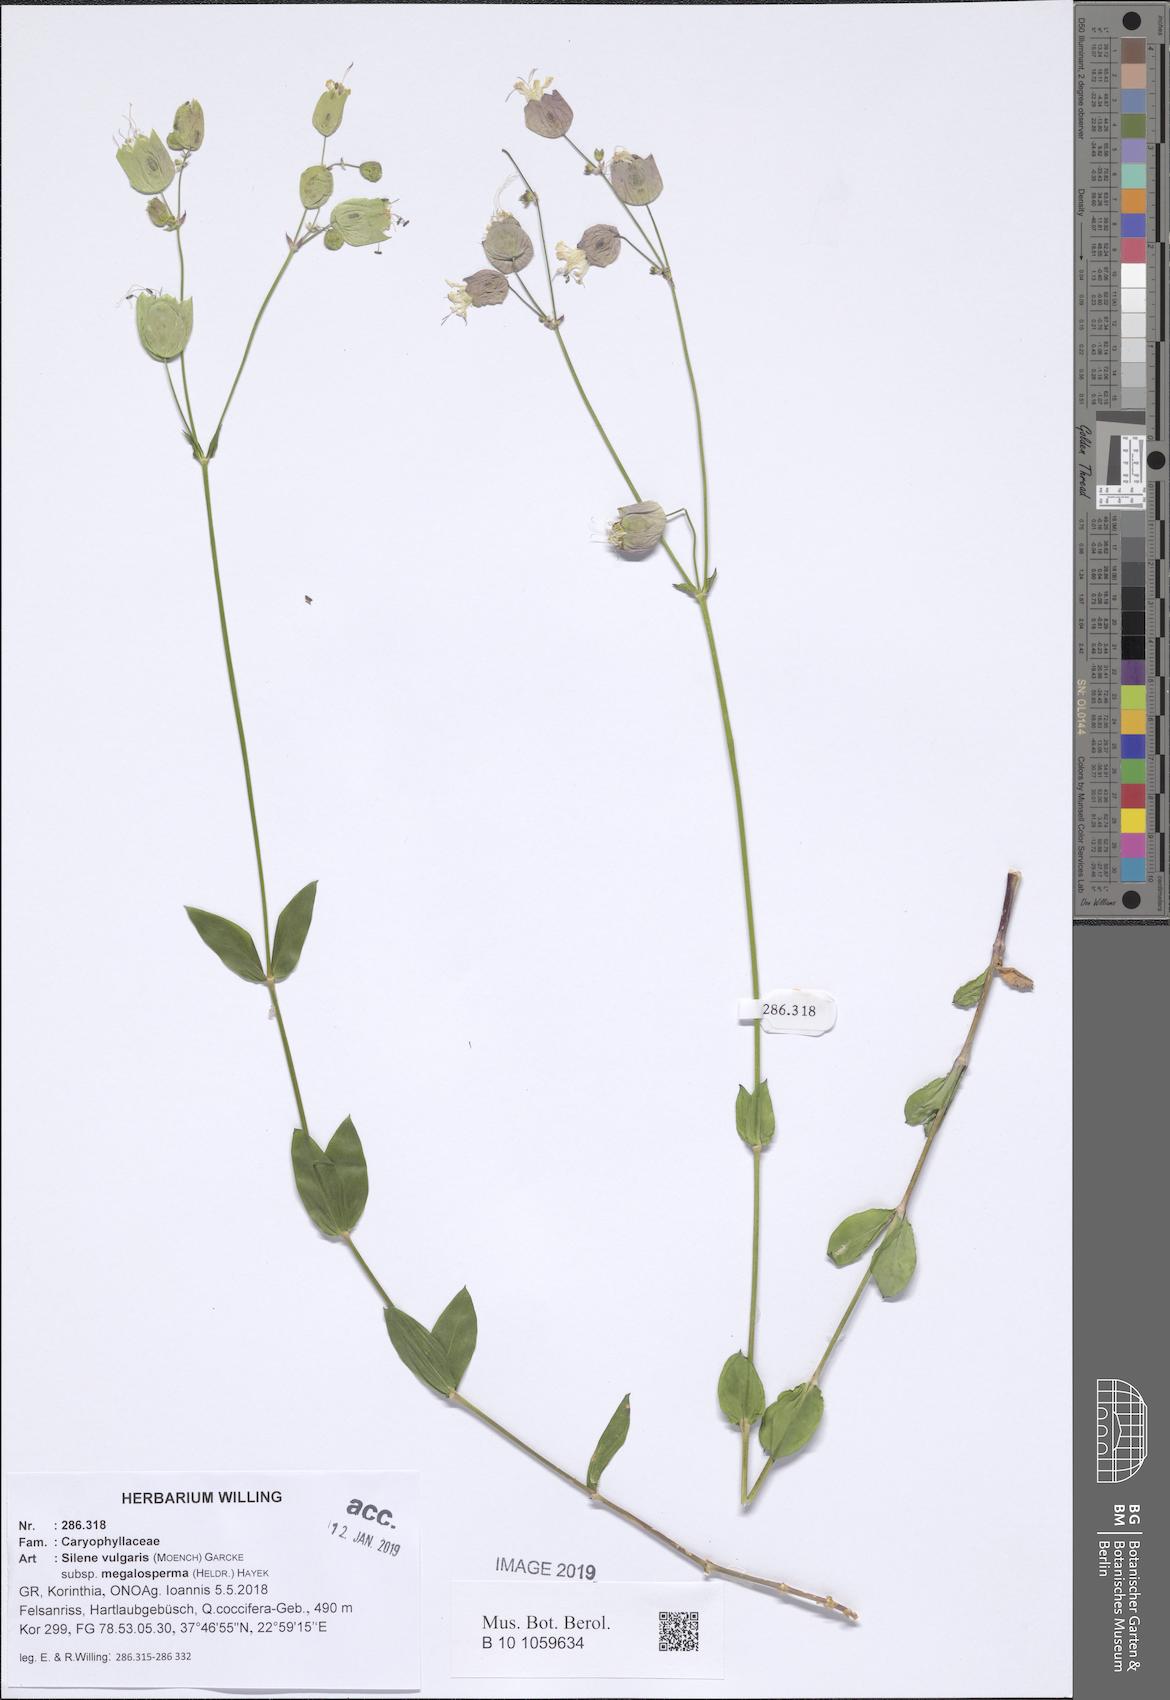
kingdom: Plantae
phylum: Tracheophyta
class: Magnoliopsida
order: Caryophyllales
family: Caryophyllaceae
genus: Silene
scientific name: Silene vulgaris
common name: Bladder campion
